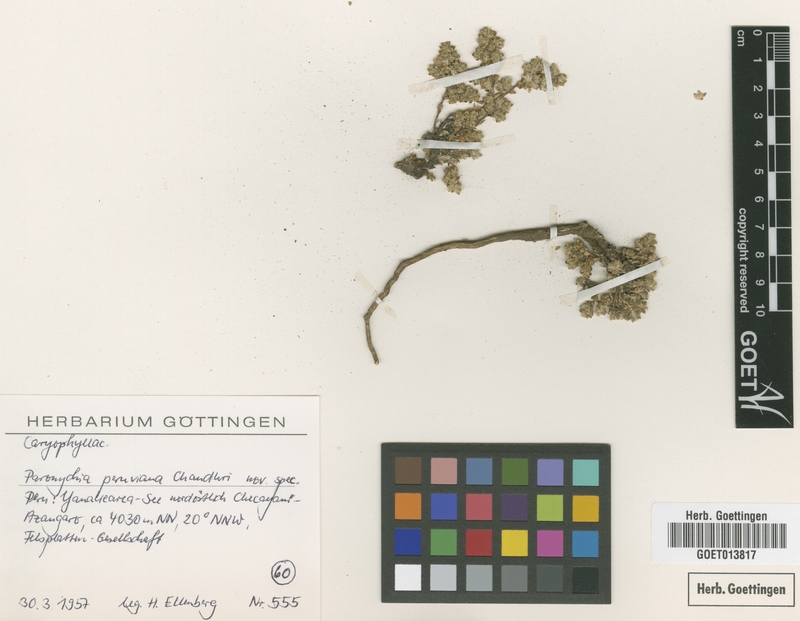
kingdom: Plantae
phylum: Tracheophyta
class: Magnoliopsida
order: Caryophyllales
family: Caryophyllaceae
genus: Paronychia
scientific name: Paronychia peruviana
